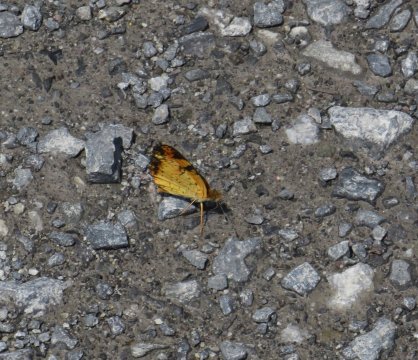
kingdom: Animalia
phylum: Arthropoda
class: Insecta
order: Lepidoptera
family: Nymphalidae
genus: Phyciodes
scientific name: Phyciodes tharos
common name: Pearl Crescent
